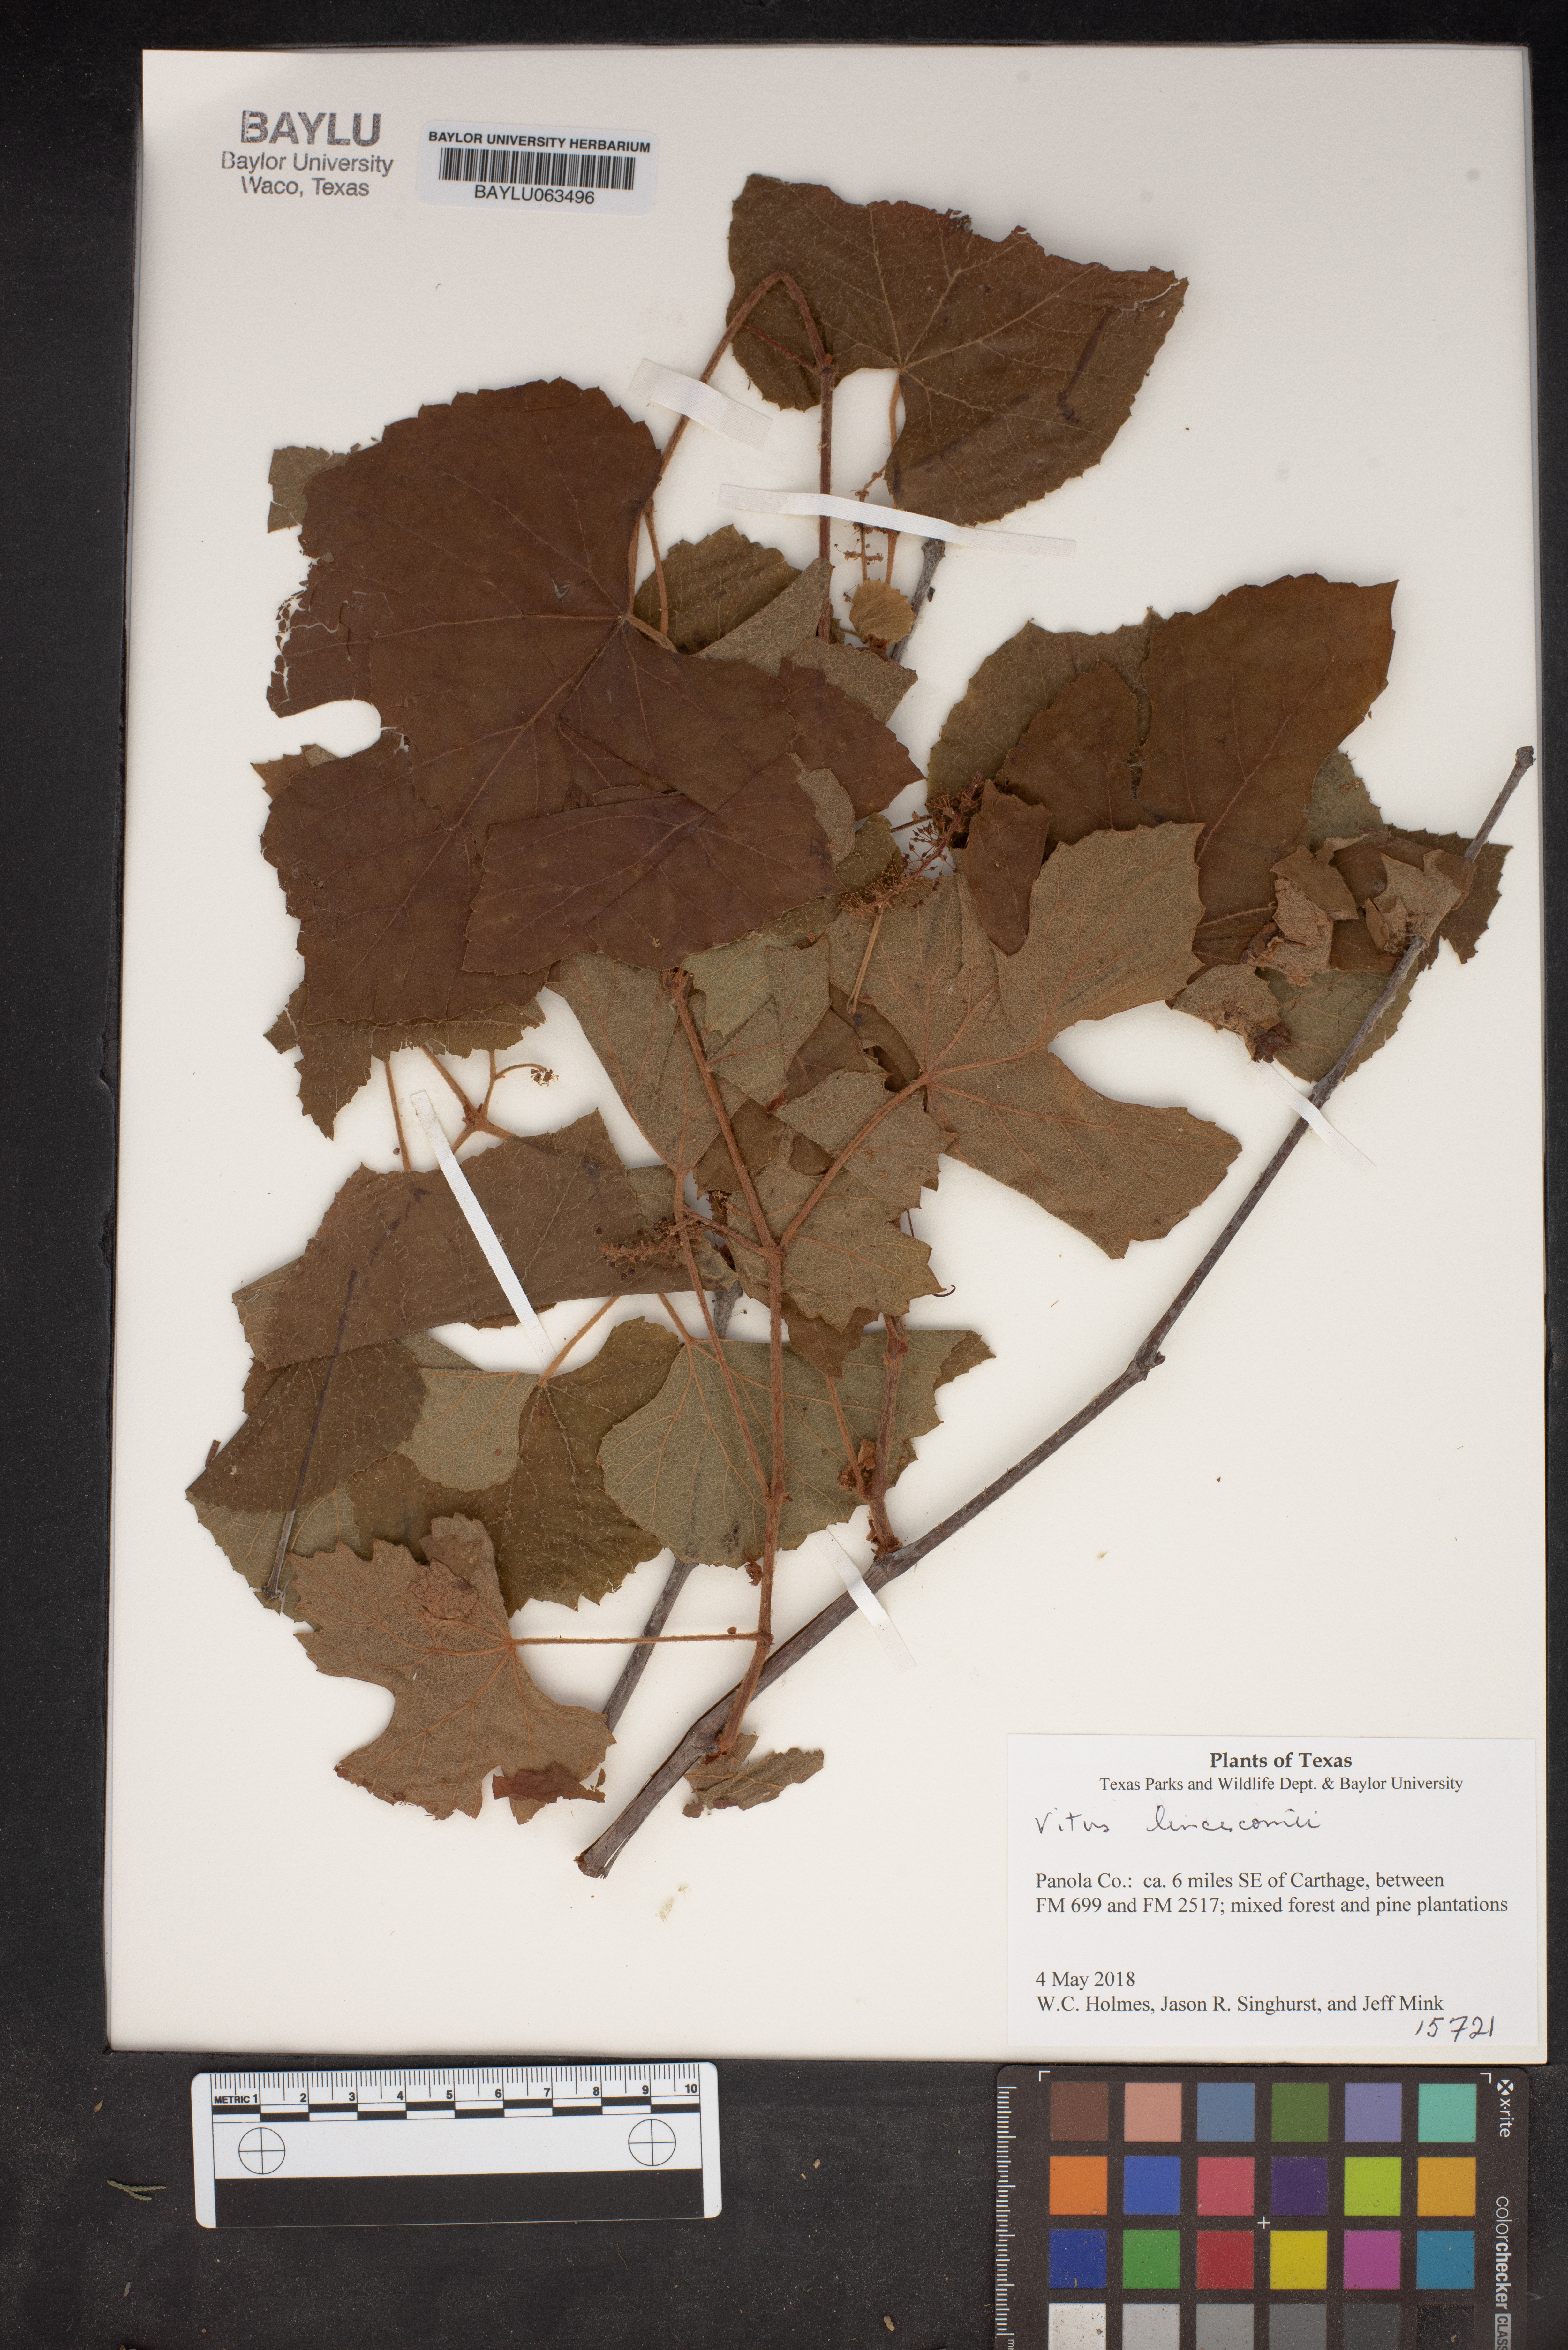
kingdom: Plantae
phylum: Tracheophyta
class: Magnoliopsida
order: Vitales
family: Vitaceae
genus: Vitis
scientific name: Vitis aestivalis
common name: Pigeon grape
